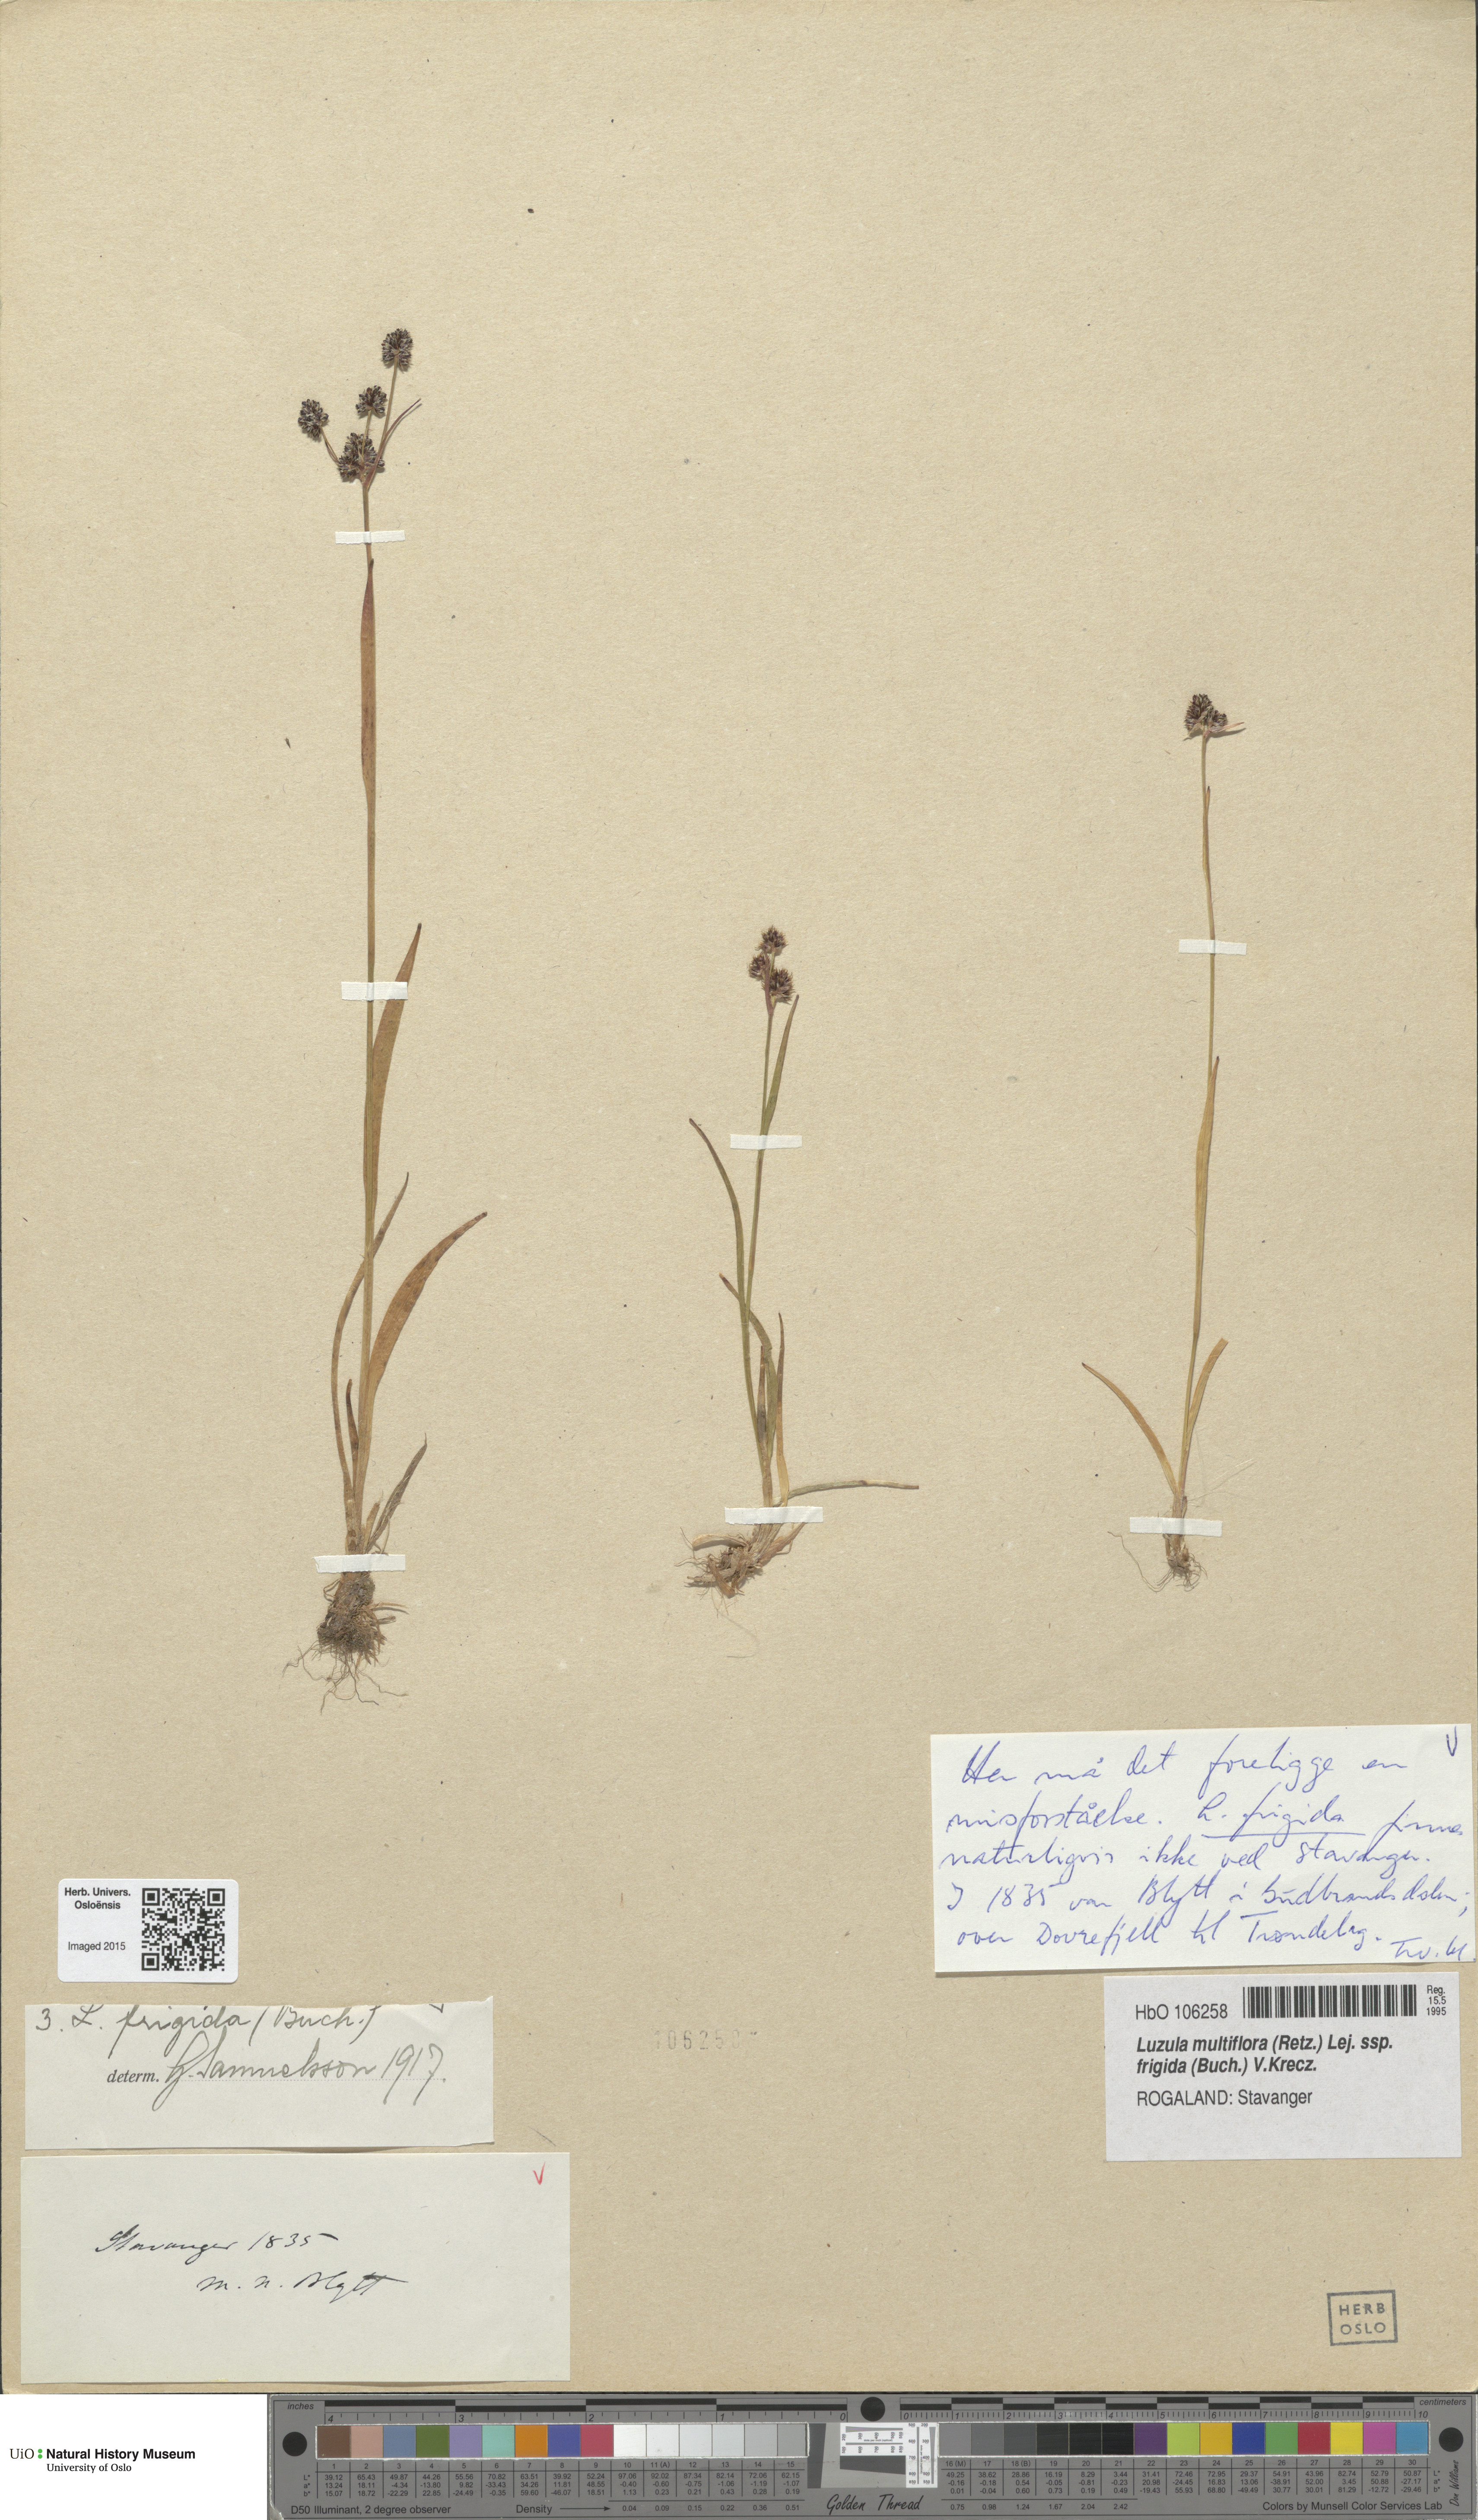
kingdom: Plantae
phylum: Tracheophyta
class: Liliopsida
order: Poales
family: Juncaceae
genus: Luzula
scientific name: Luzula multiflora
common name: Heath wood-rush
